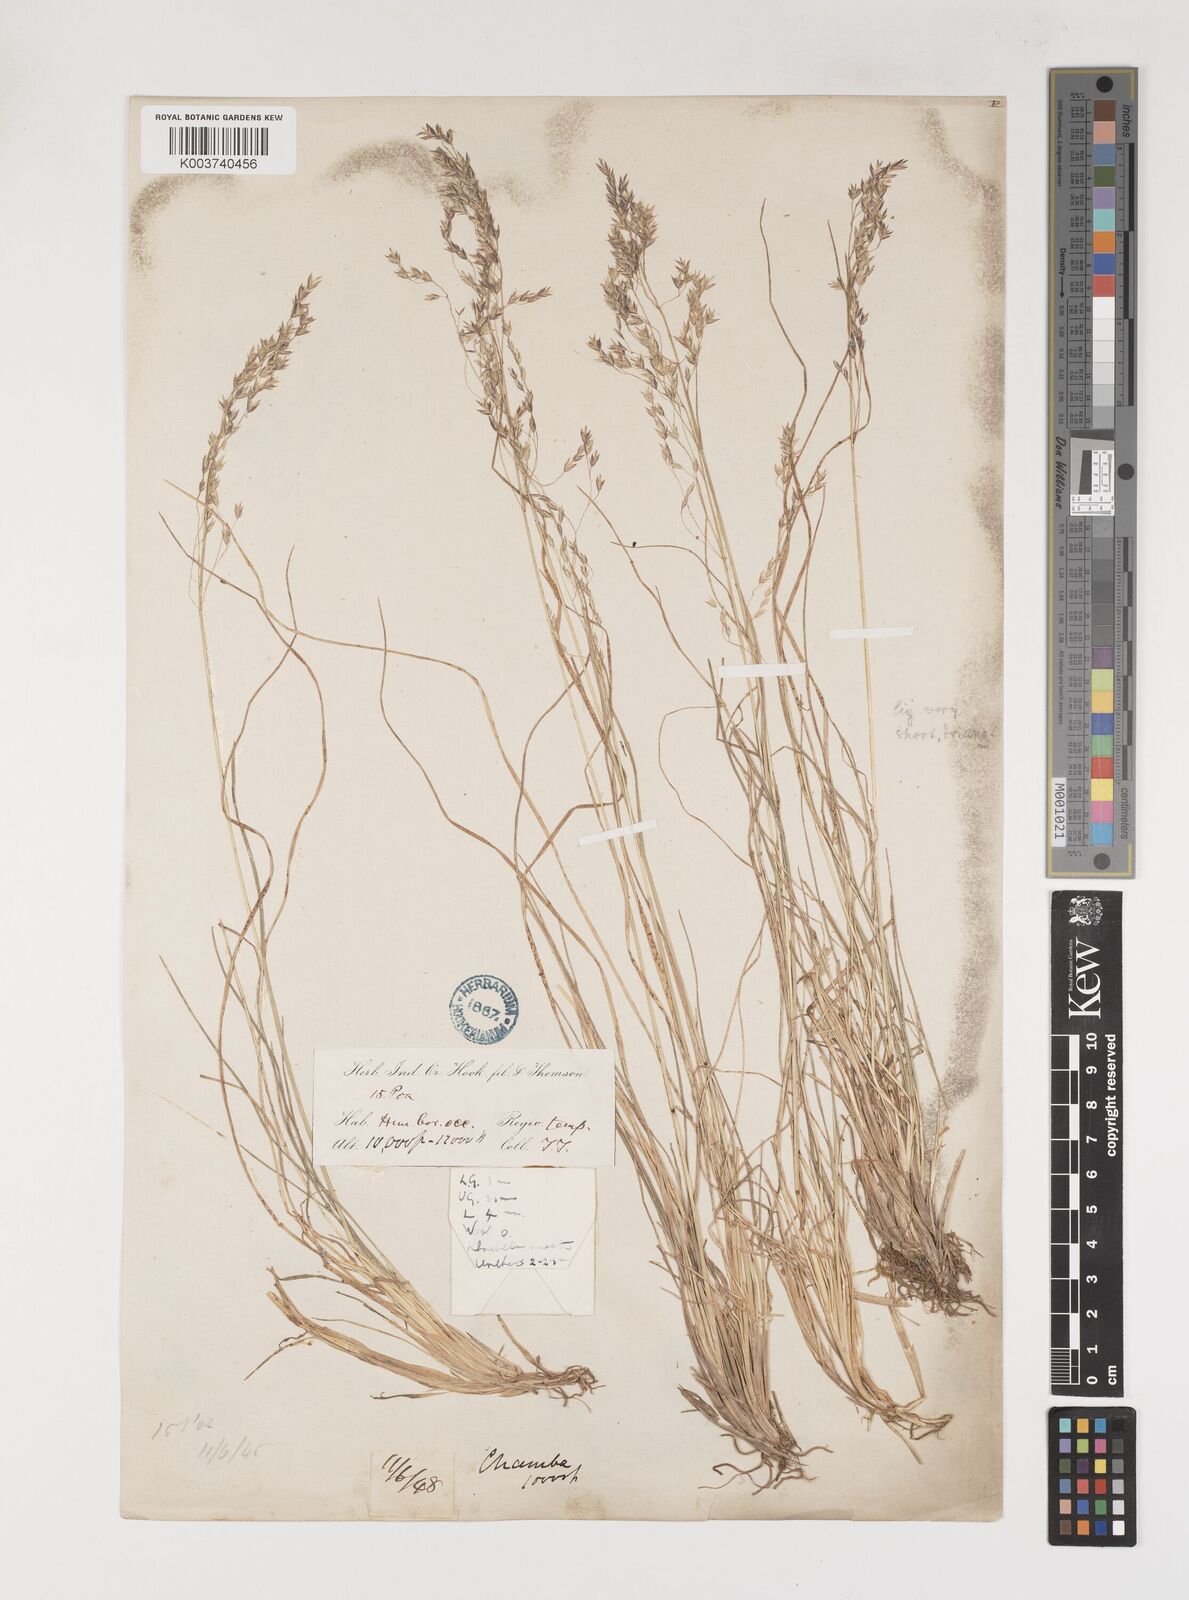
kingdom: Plantae
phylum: Tracheophyta
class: Liliopsida
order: Poales
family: Poaceae
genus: Poa
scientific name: Poa polycolea
